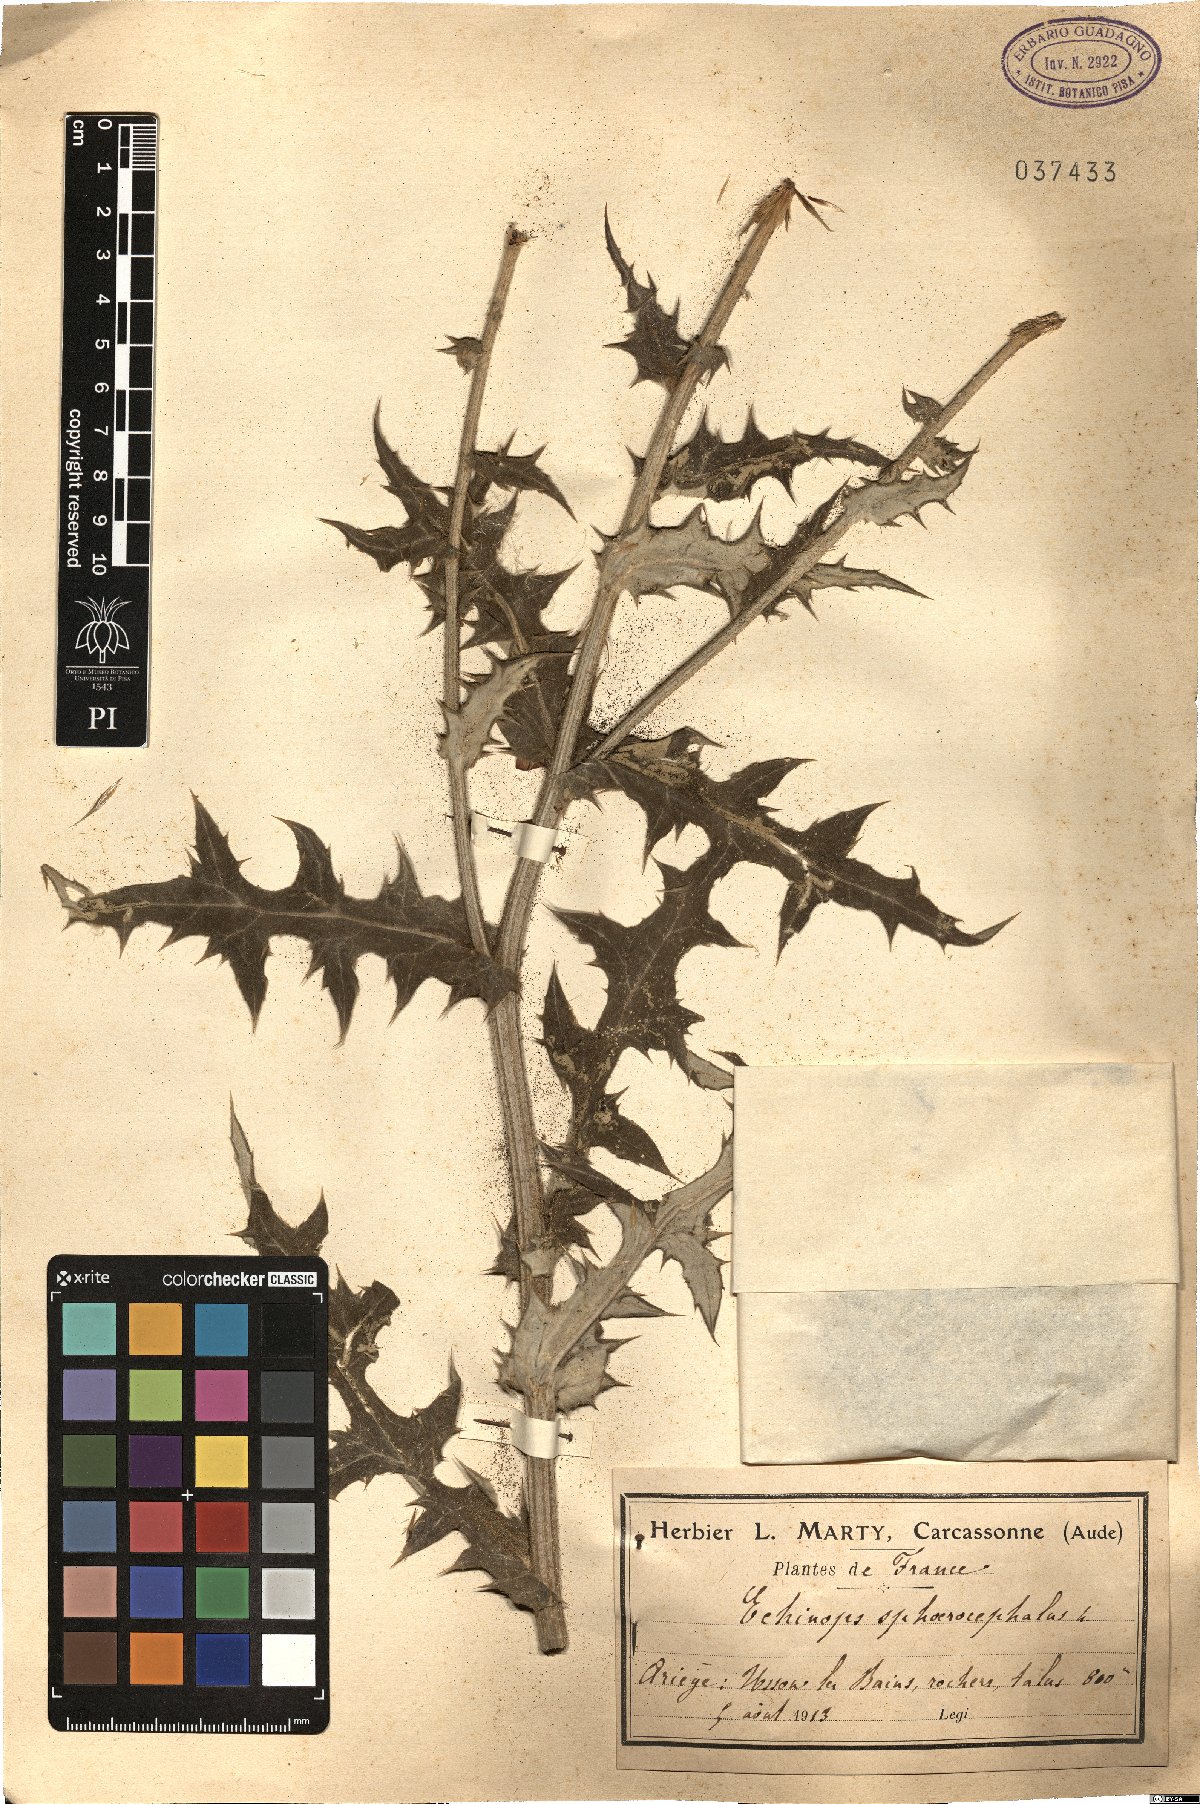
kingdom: Plantae
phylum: Tracheophyta
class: Magnoliopsida
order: Asterales
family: Asteraceae
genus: Echinops
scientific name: Echinops sphaerocephalus
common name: Glandular globe-thistle
